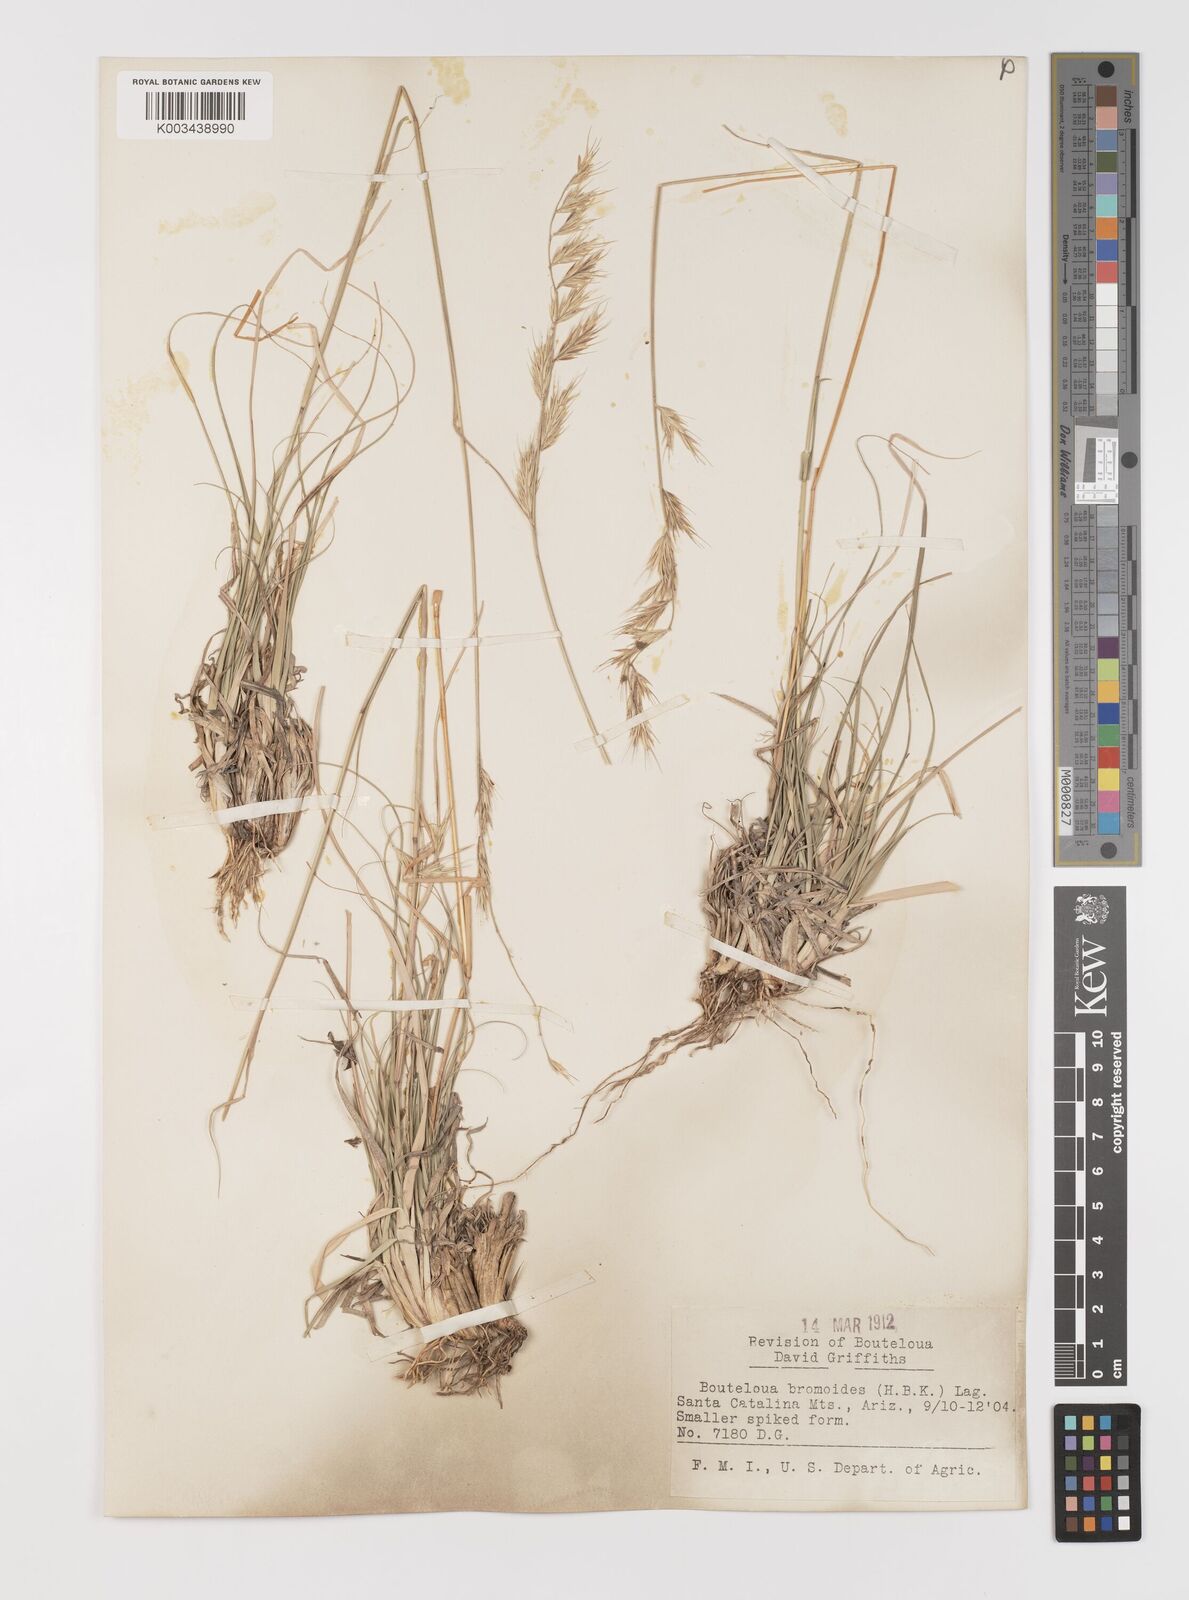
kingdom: Plantae
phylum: Tracheophyta
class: Liliopsida
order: Poales
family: Poaceae
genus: Bouteloua
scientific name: Bouteloua repens
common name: Slender grama
